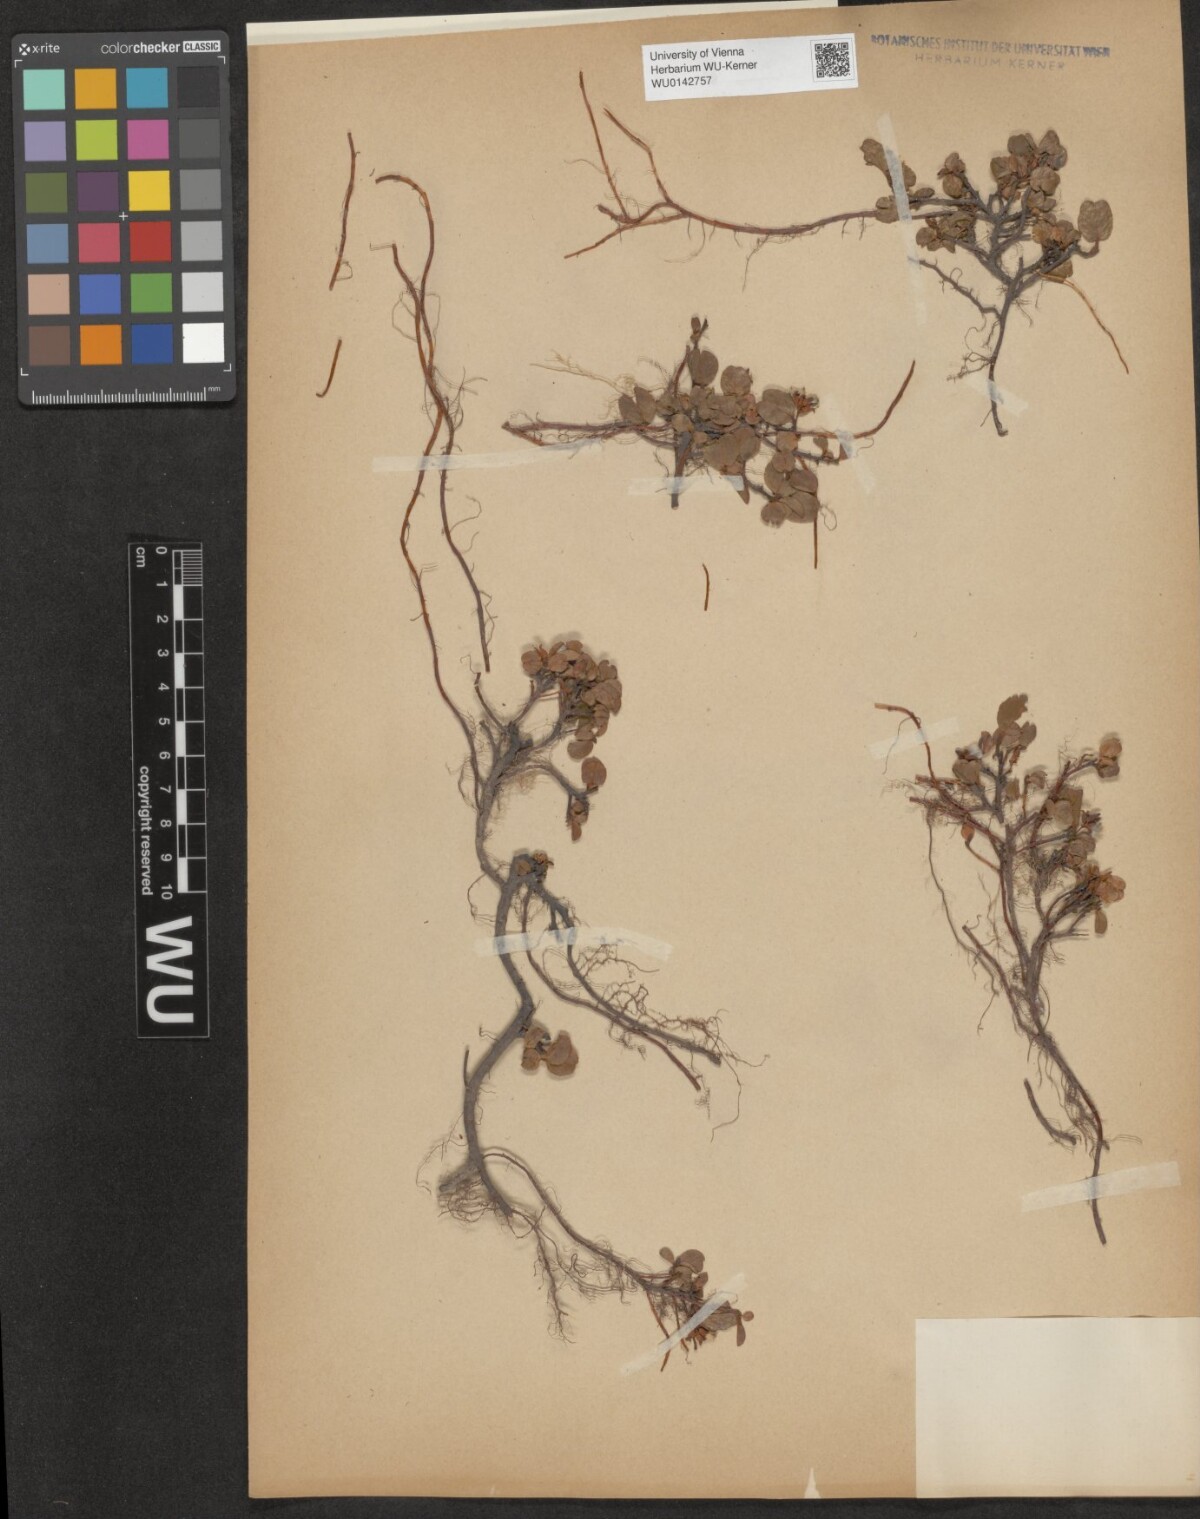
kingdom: Plantae
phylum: Tracheophyta
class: Magnoliopsida
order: Malpighiales
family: Salicaceae
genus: Salix
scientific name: Salix herbacea
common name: Dwarf willow
